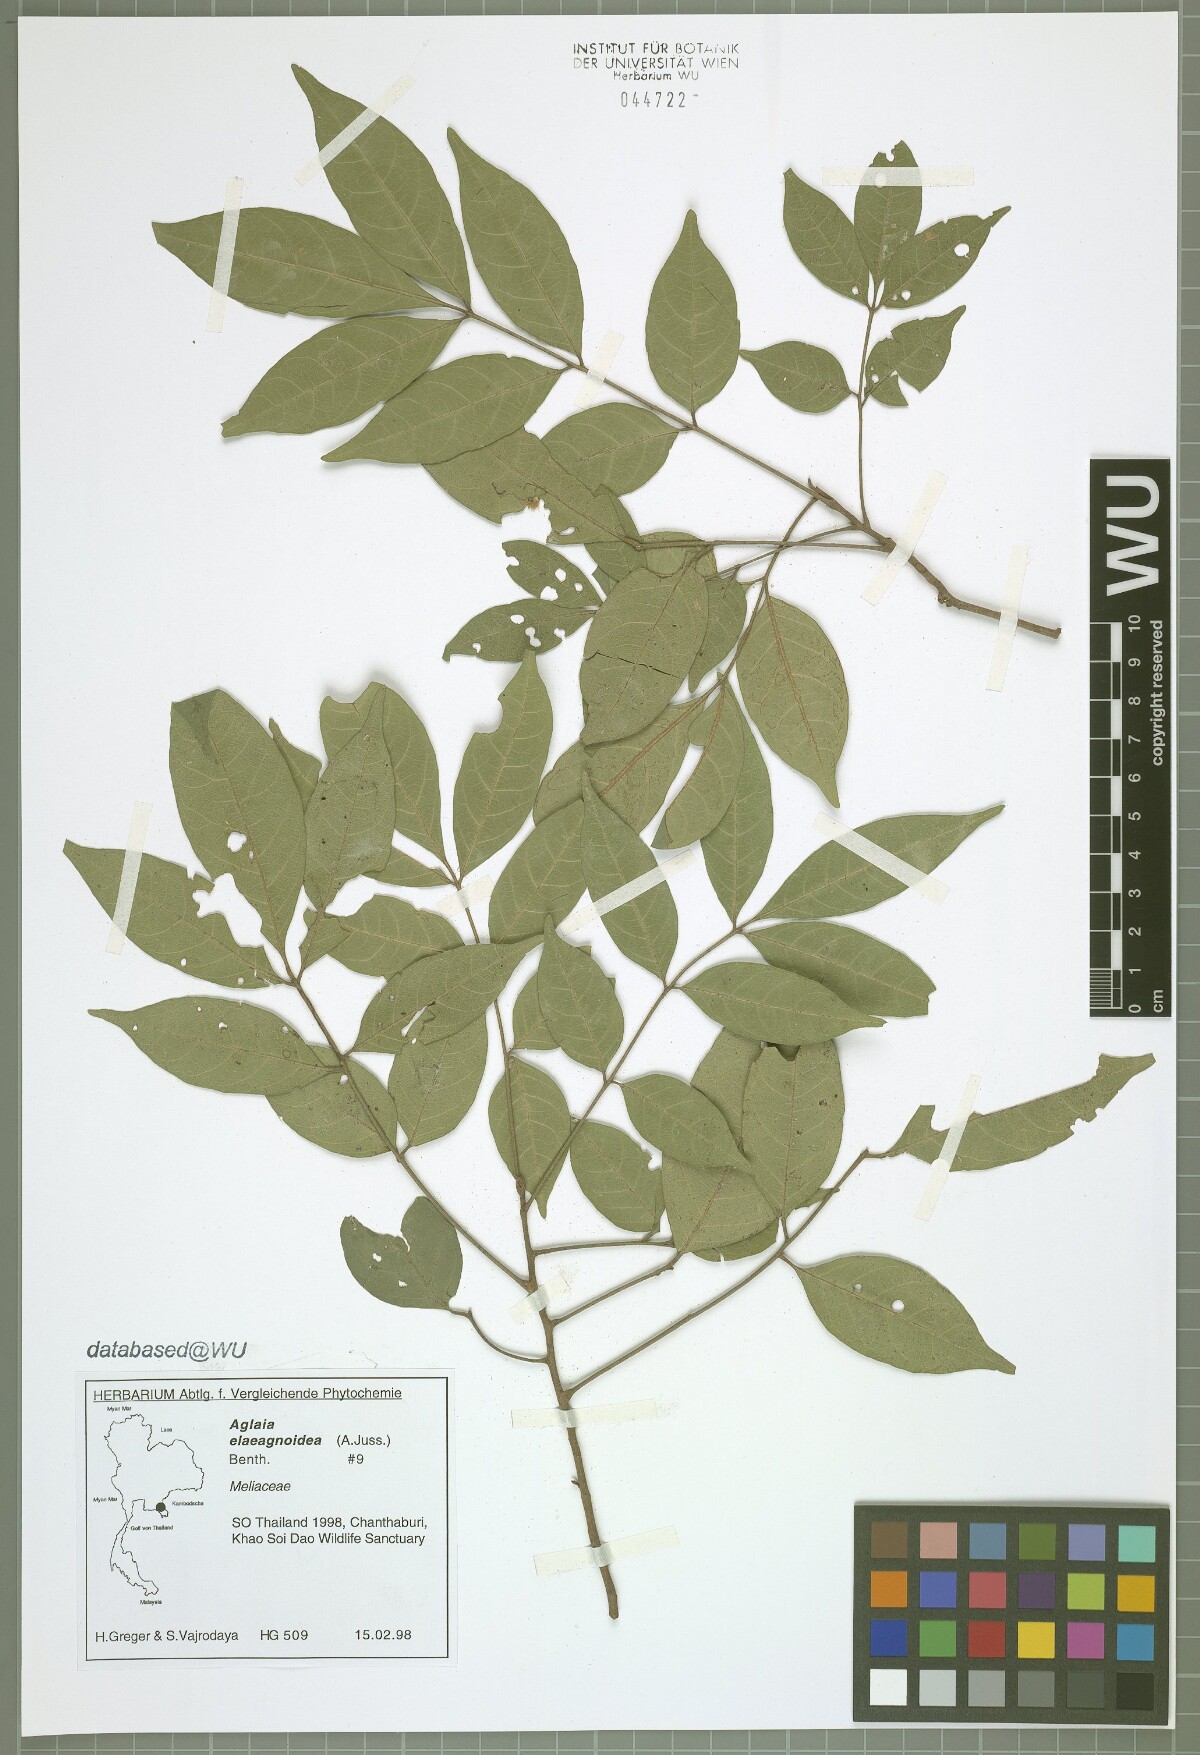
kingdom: Plantae
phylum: Tracheophyta
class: Magnoliopsida
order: Sapindales
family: Meliaceae
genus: Aglaia
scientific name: Aglaia elaeagnoidea
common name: Droopyleaf
